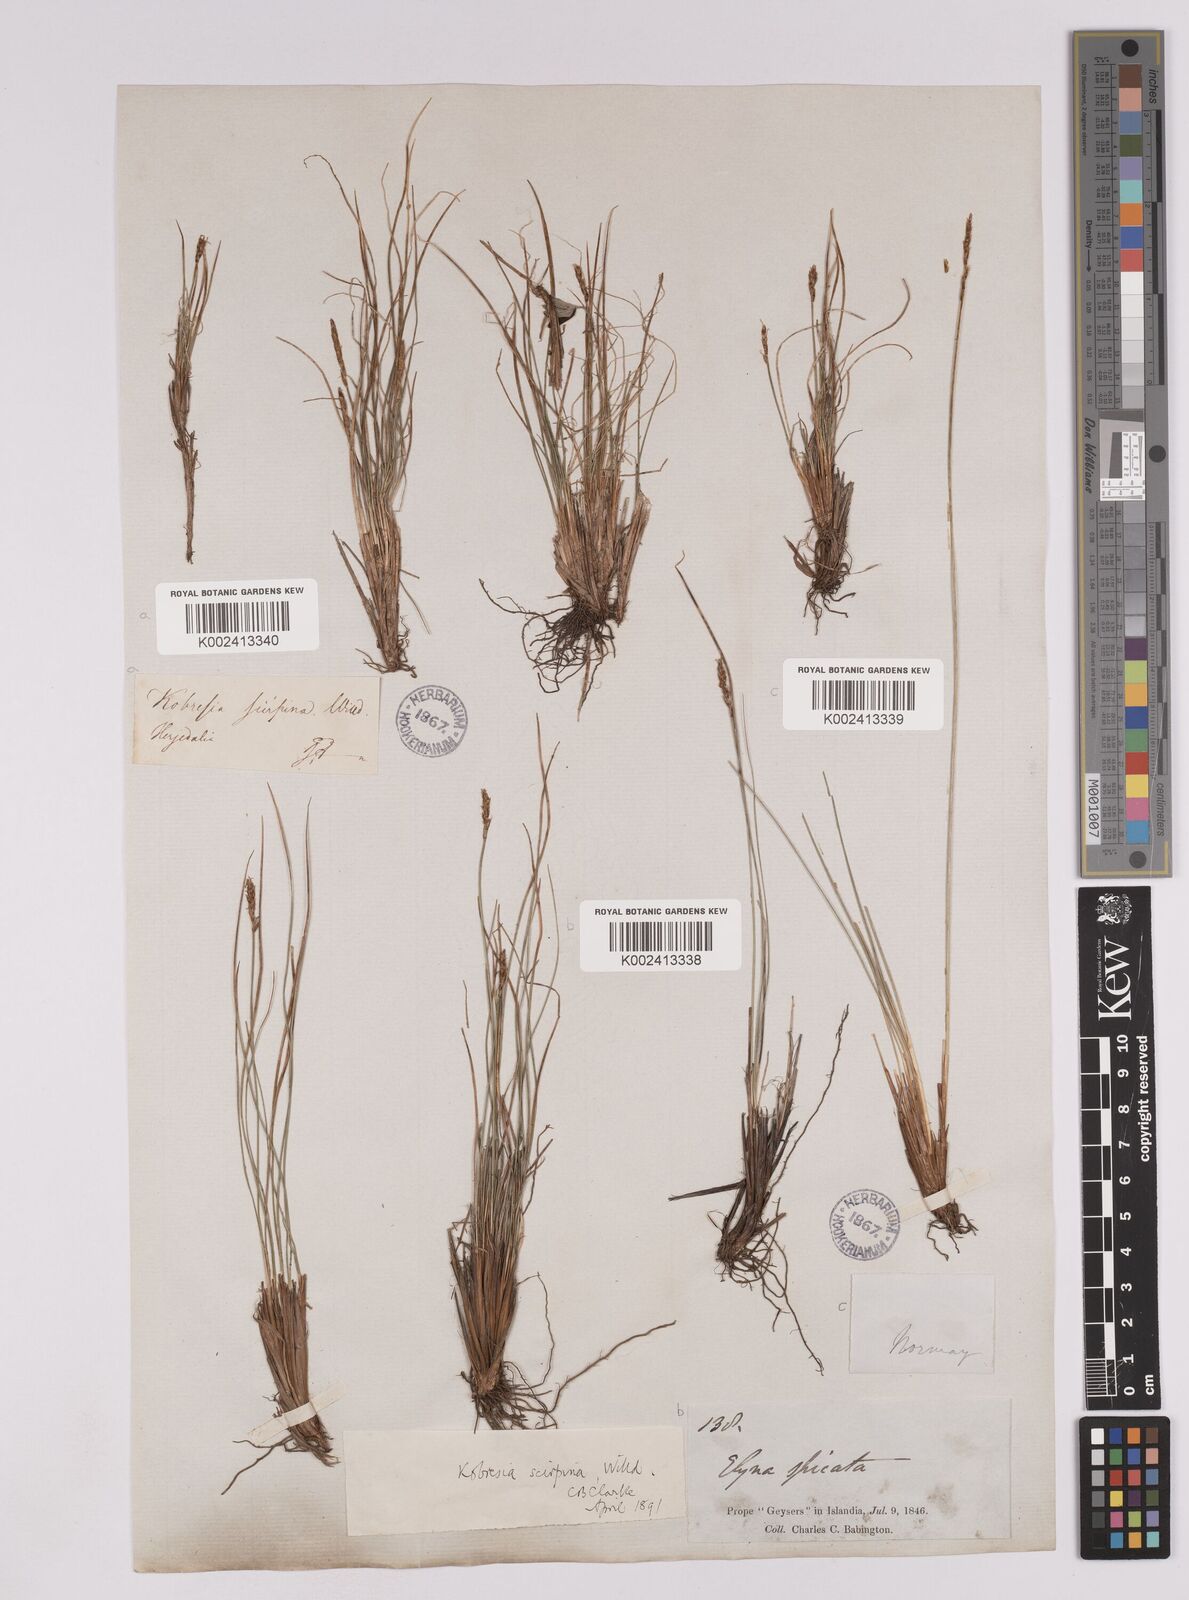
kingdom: Plantae
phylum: Tracheophyta
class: Liliopsida
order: Poales
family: Cyperaceae
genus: Carex
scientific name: Carex myosuroides
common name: Bellard's bog sedge
